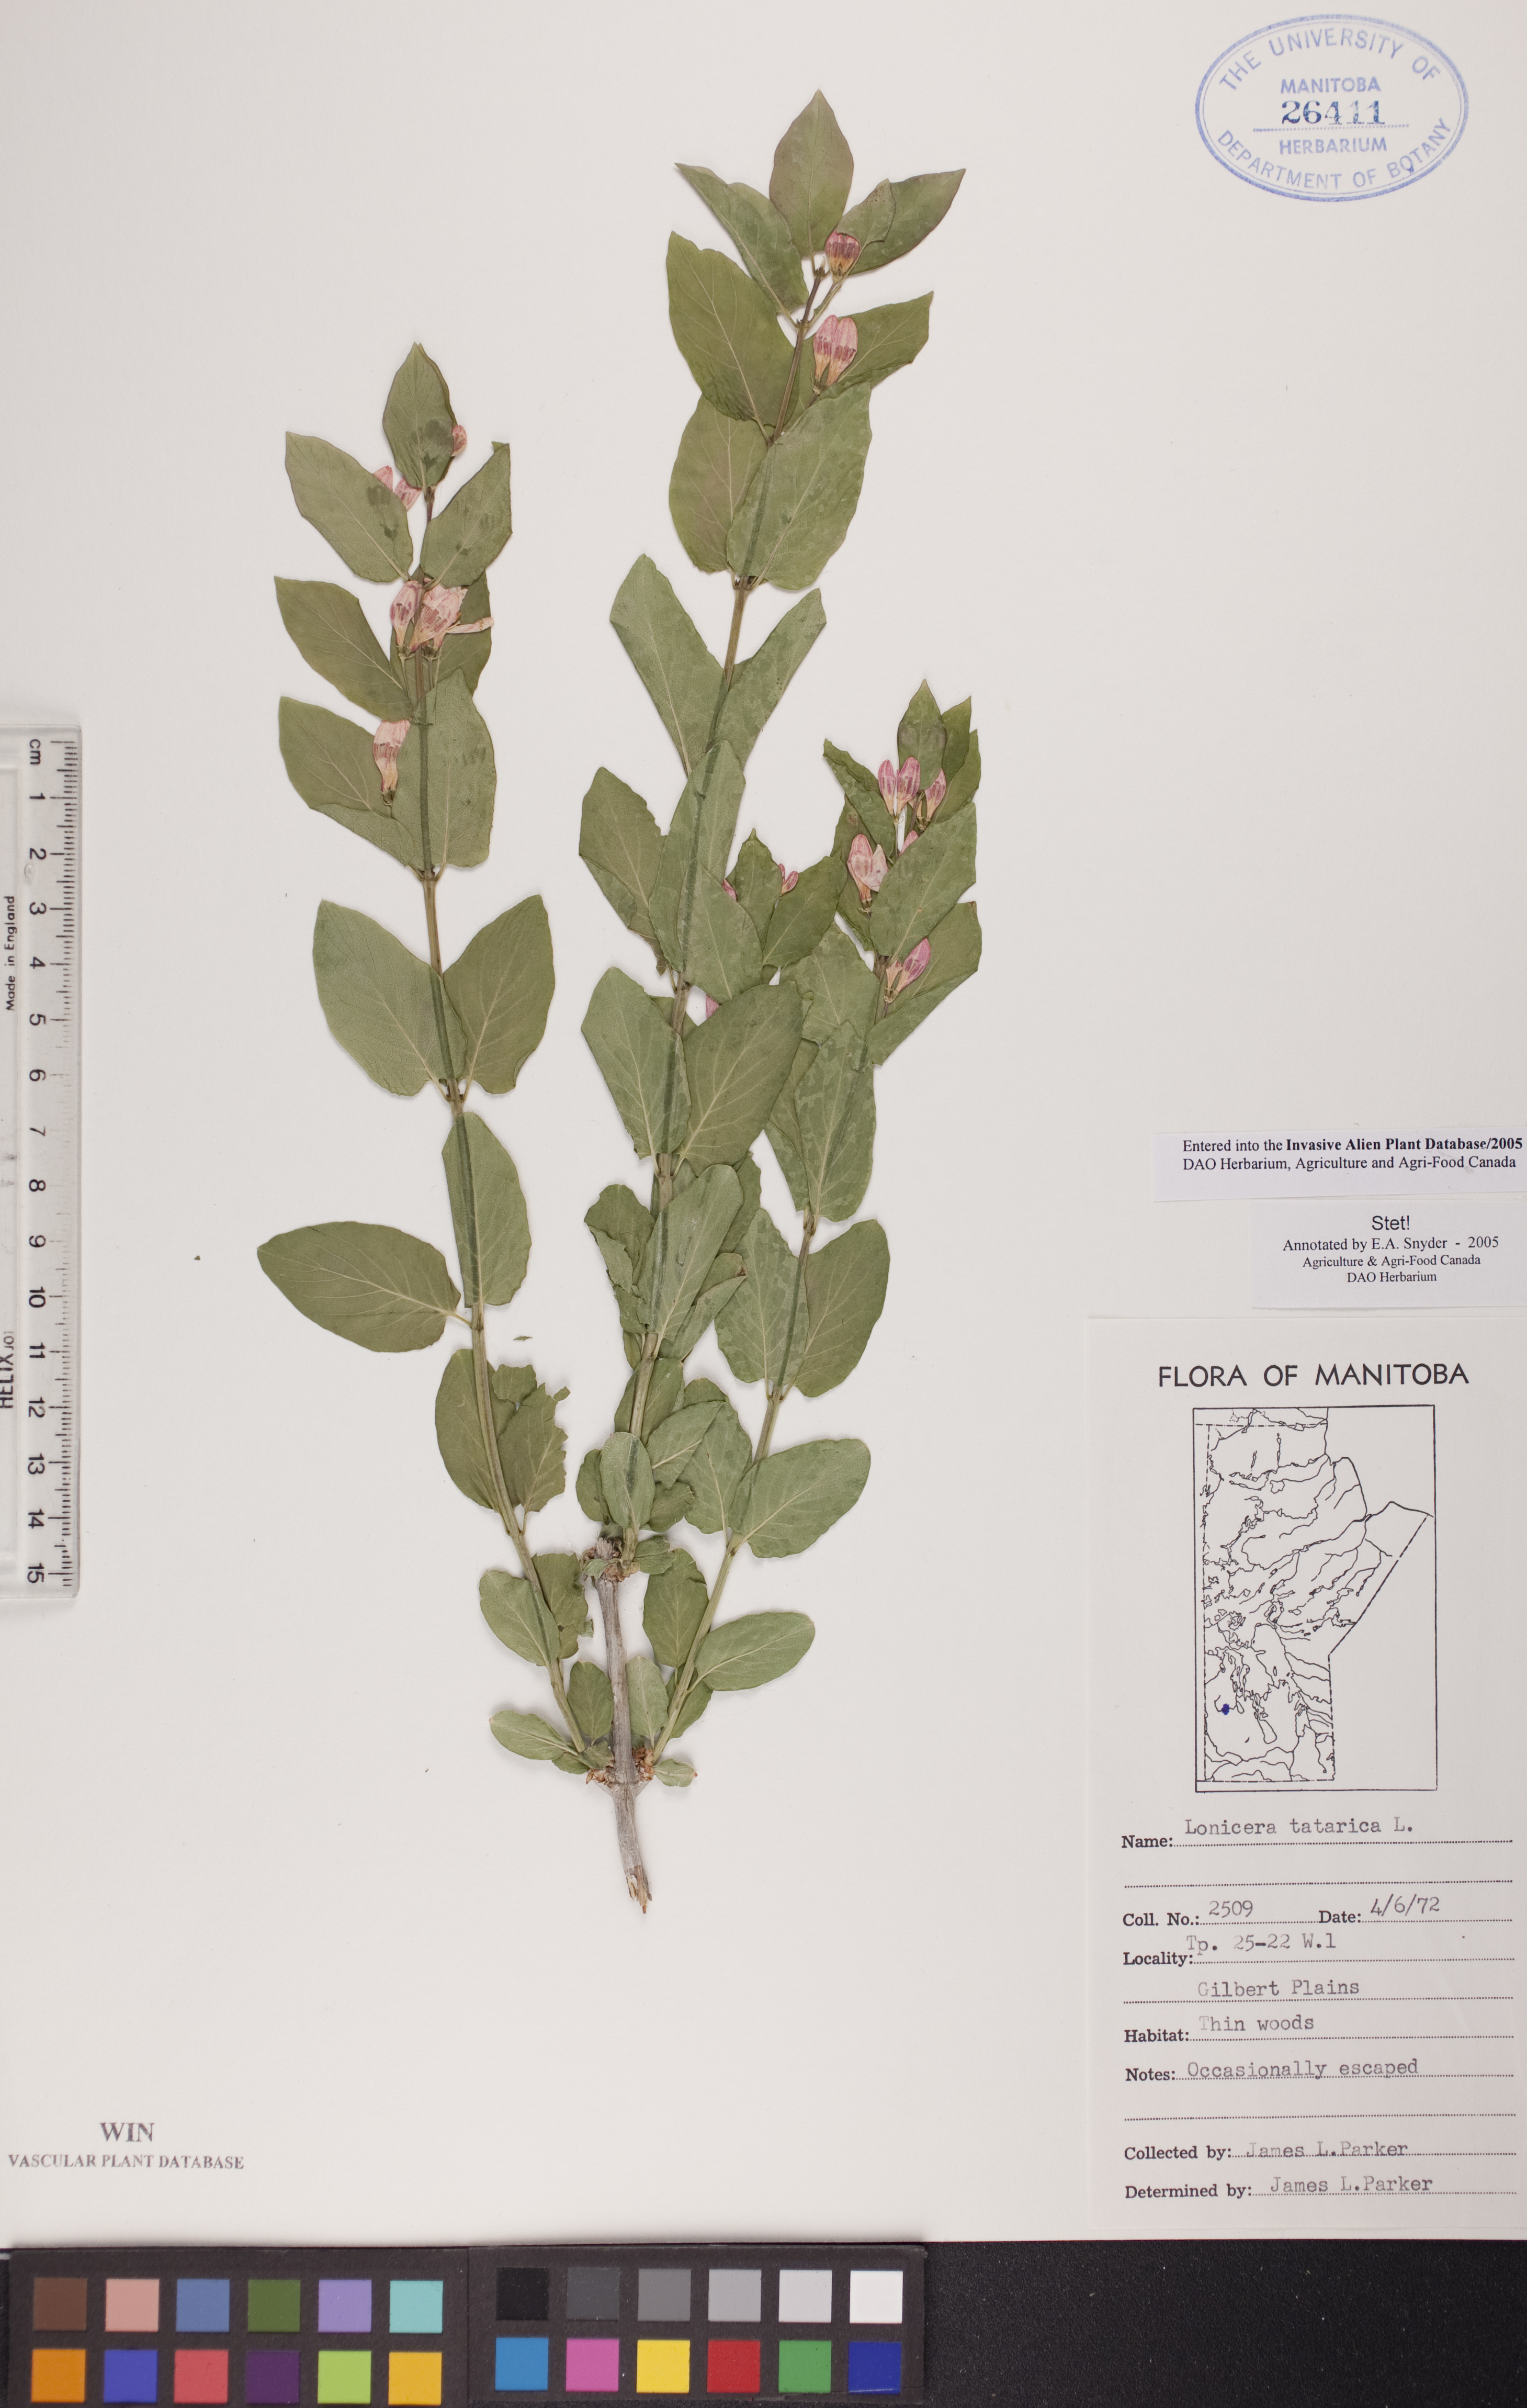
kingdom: Plantae
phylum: Tracheophyta
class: Magnoliopsida
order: Dipsacales
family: Caprifoliaceae
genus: Lonicera
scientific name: Lonicera tatarica
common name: Tatarian honeysuckle
